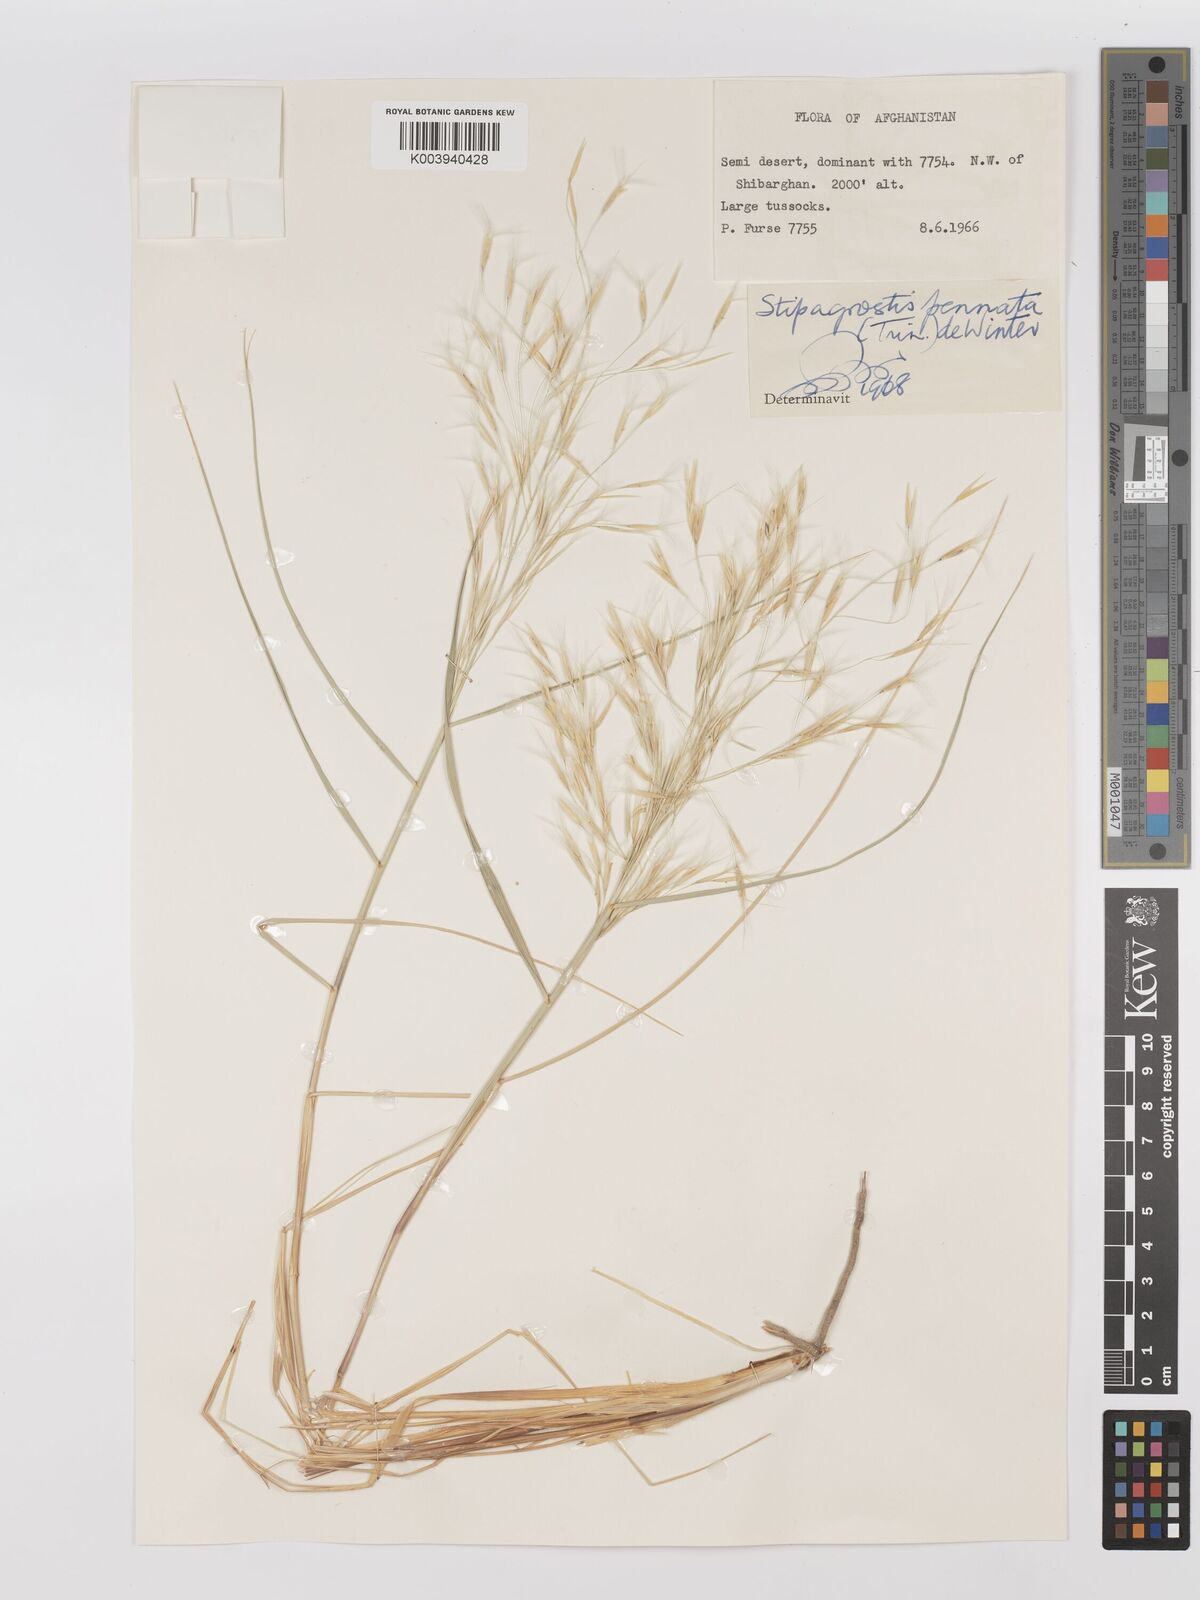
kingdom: Plantae
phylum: Tracheophyta
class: Liliopsida
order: Poales
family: Poaceae
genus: Stipagrostis
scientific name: Stipagrostis pennata
